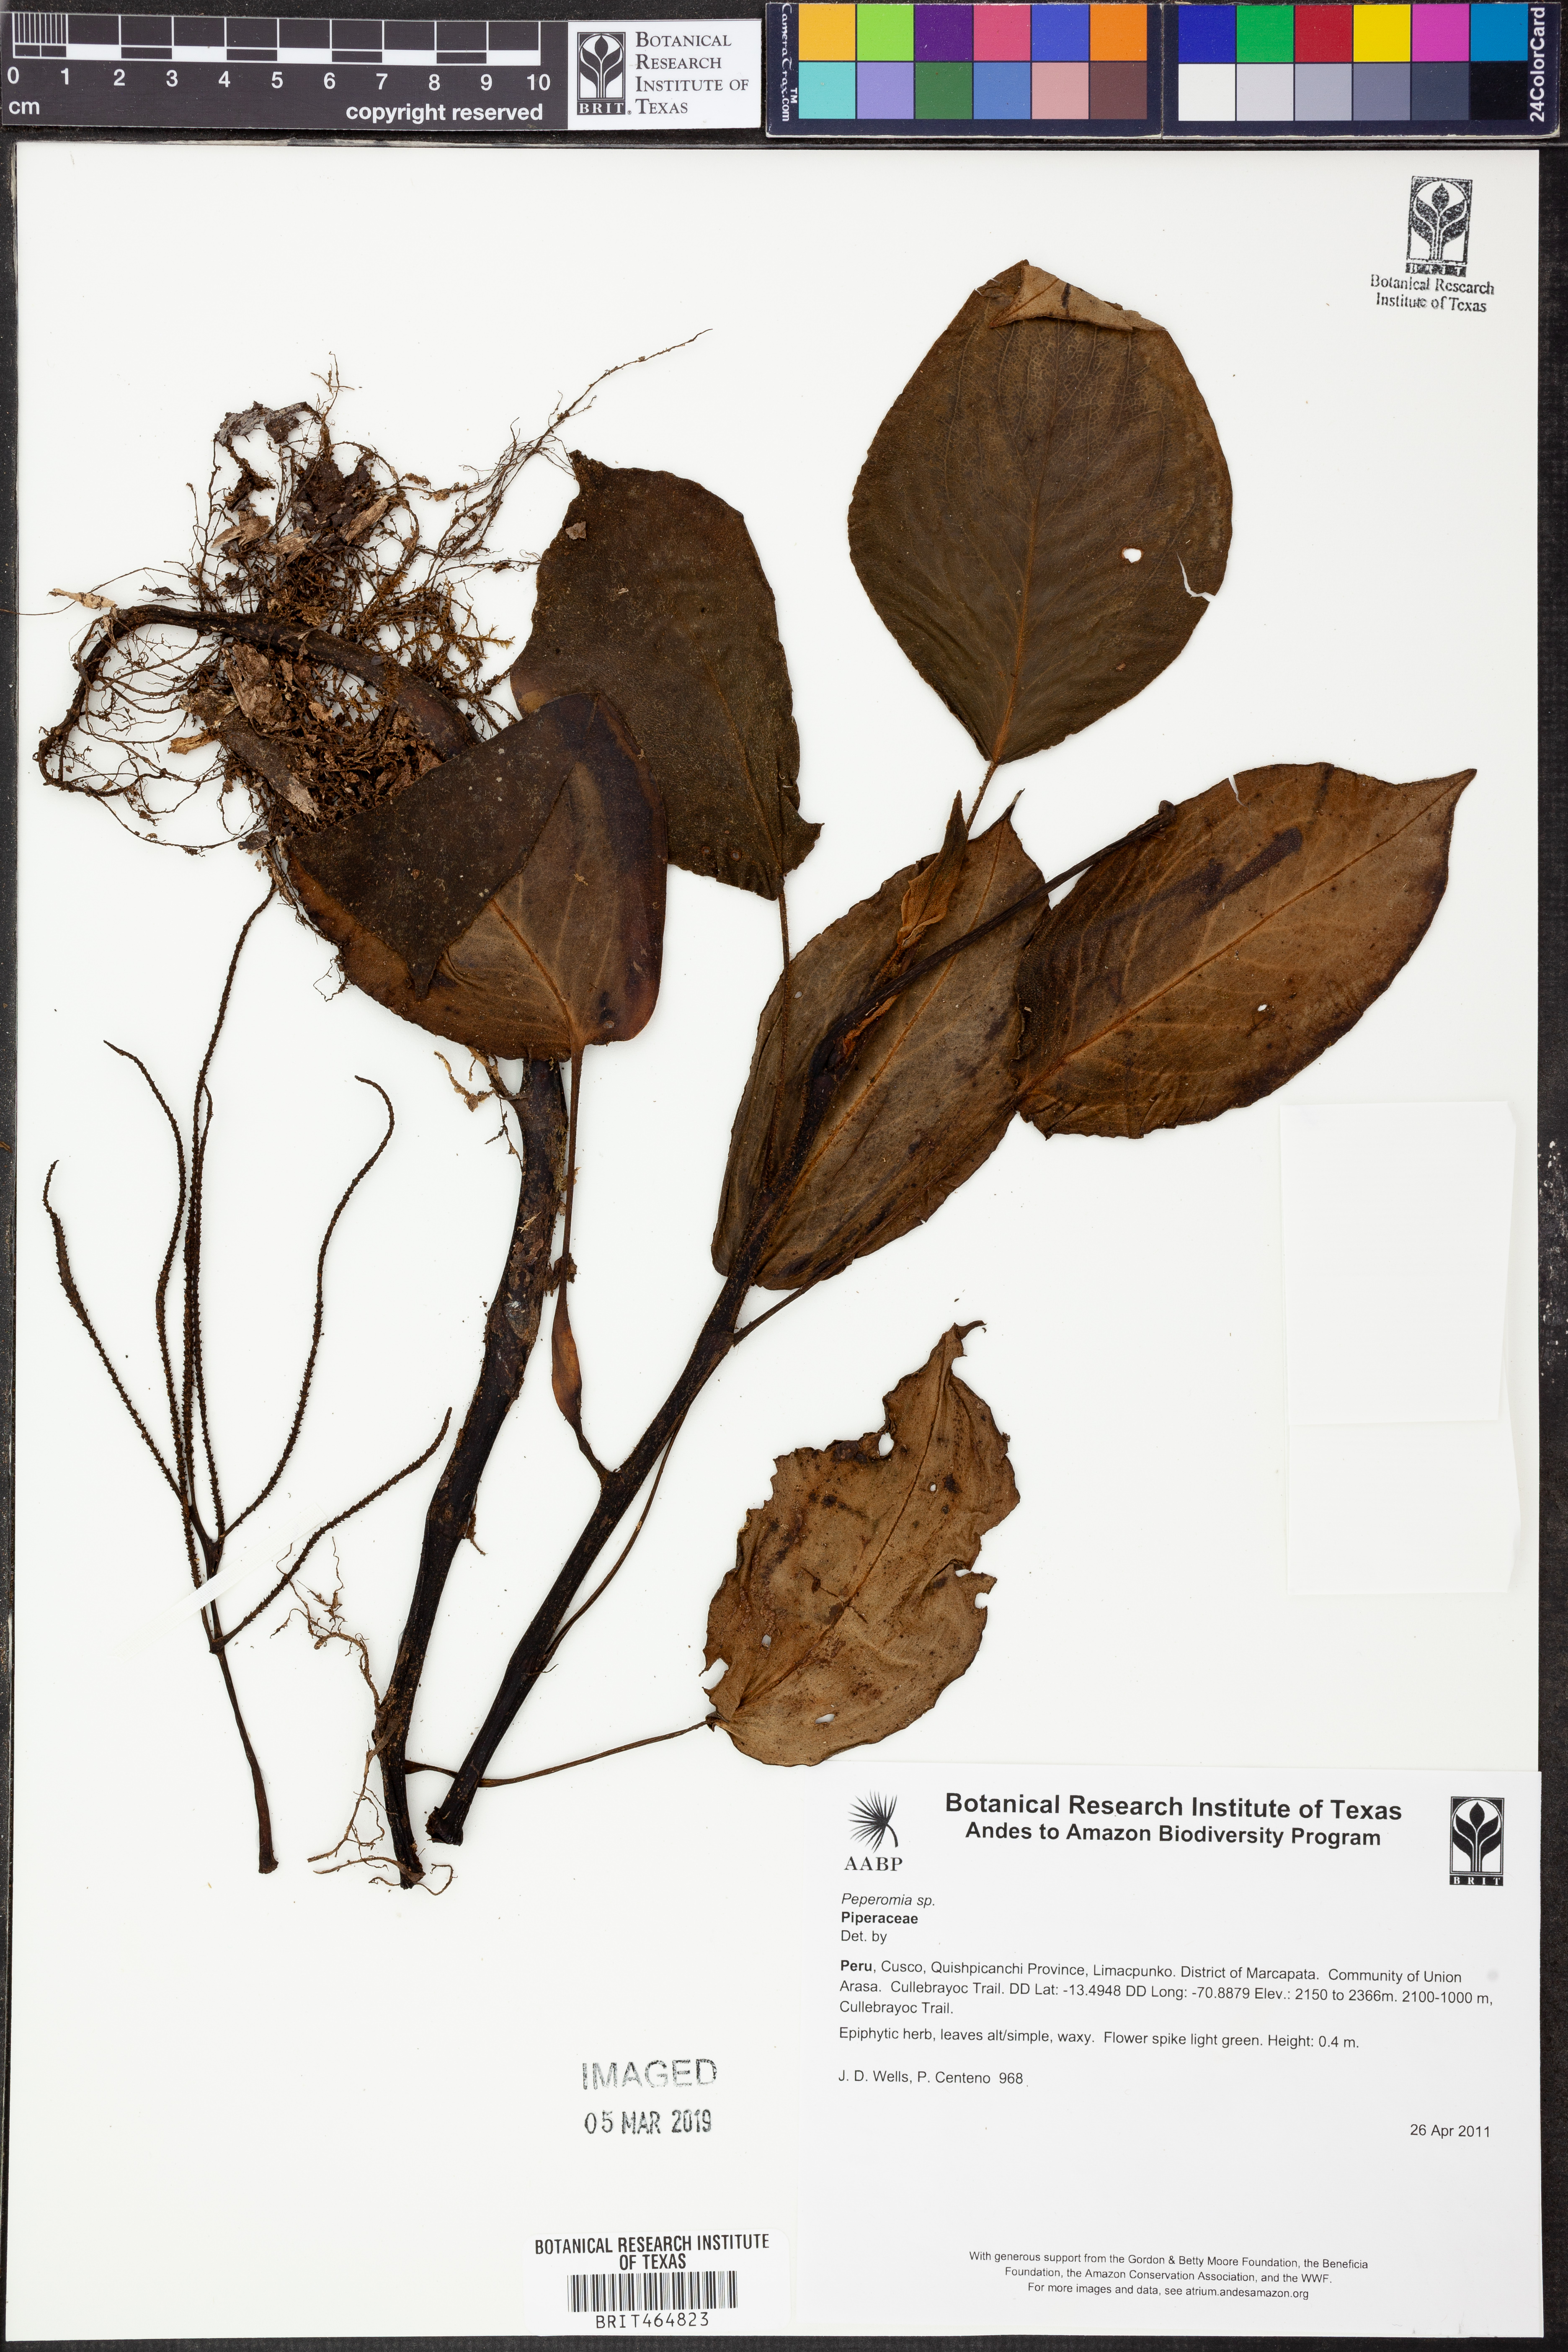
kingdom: Plantae
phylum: Tracheophyta
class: Magnoliopsida
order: Piperales
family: Piperaceae
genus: Peperomia
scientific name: Peperomia
